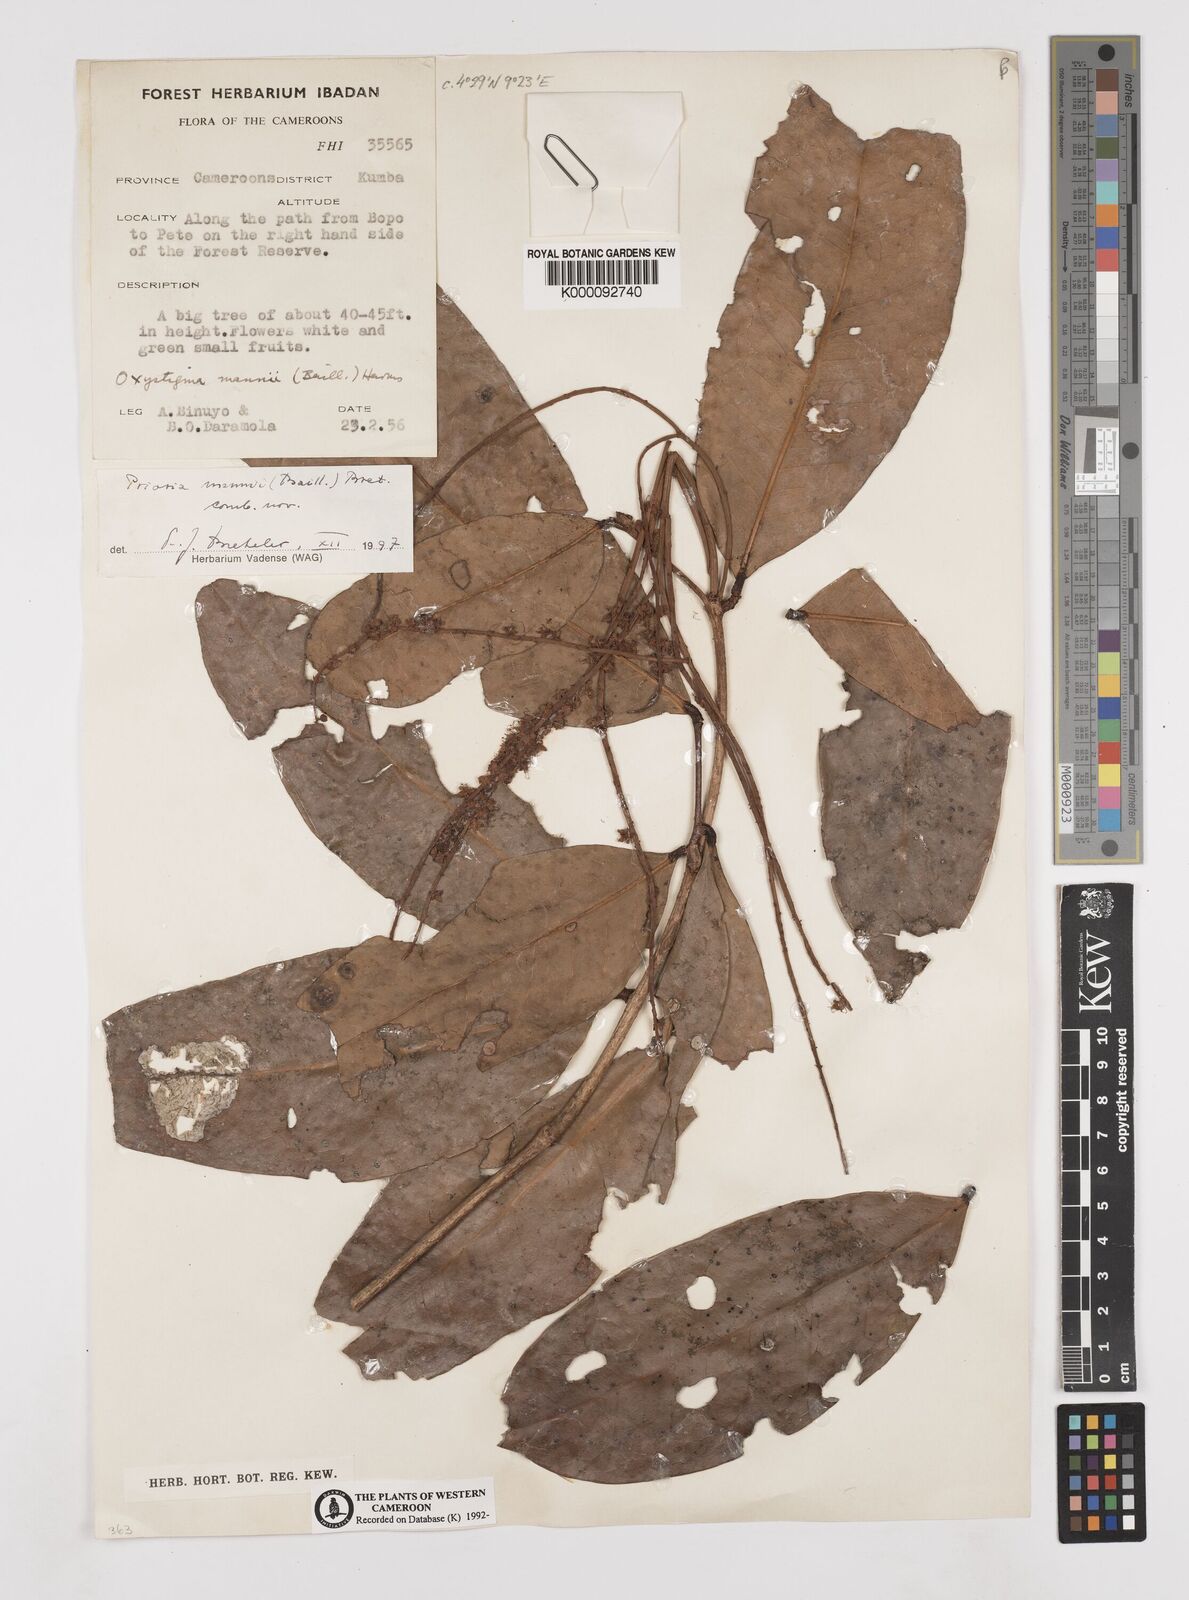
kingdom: Plantae
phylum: Tracheophyta
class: Magnoliopsida
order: Fabales
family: Fabaceae
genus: Prioria
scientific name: Prioria mannii
